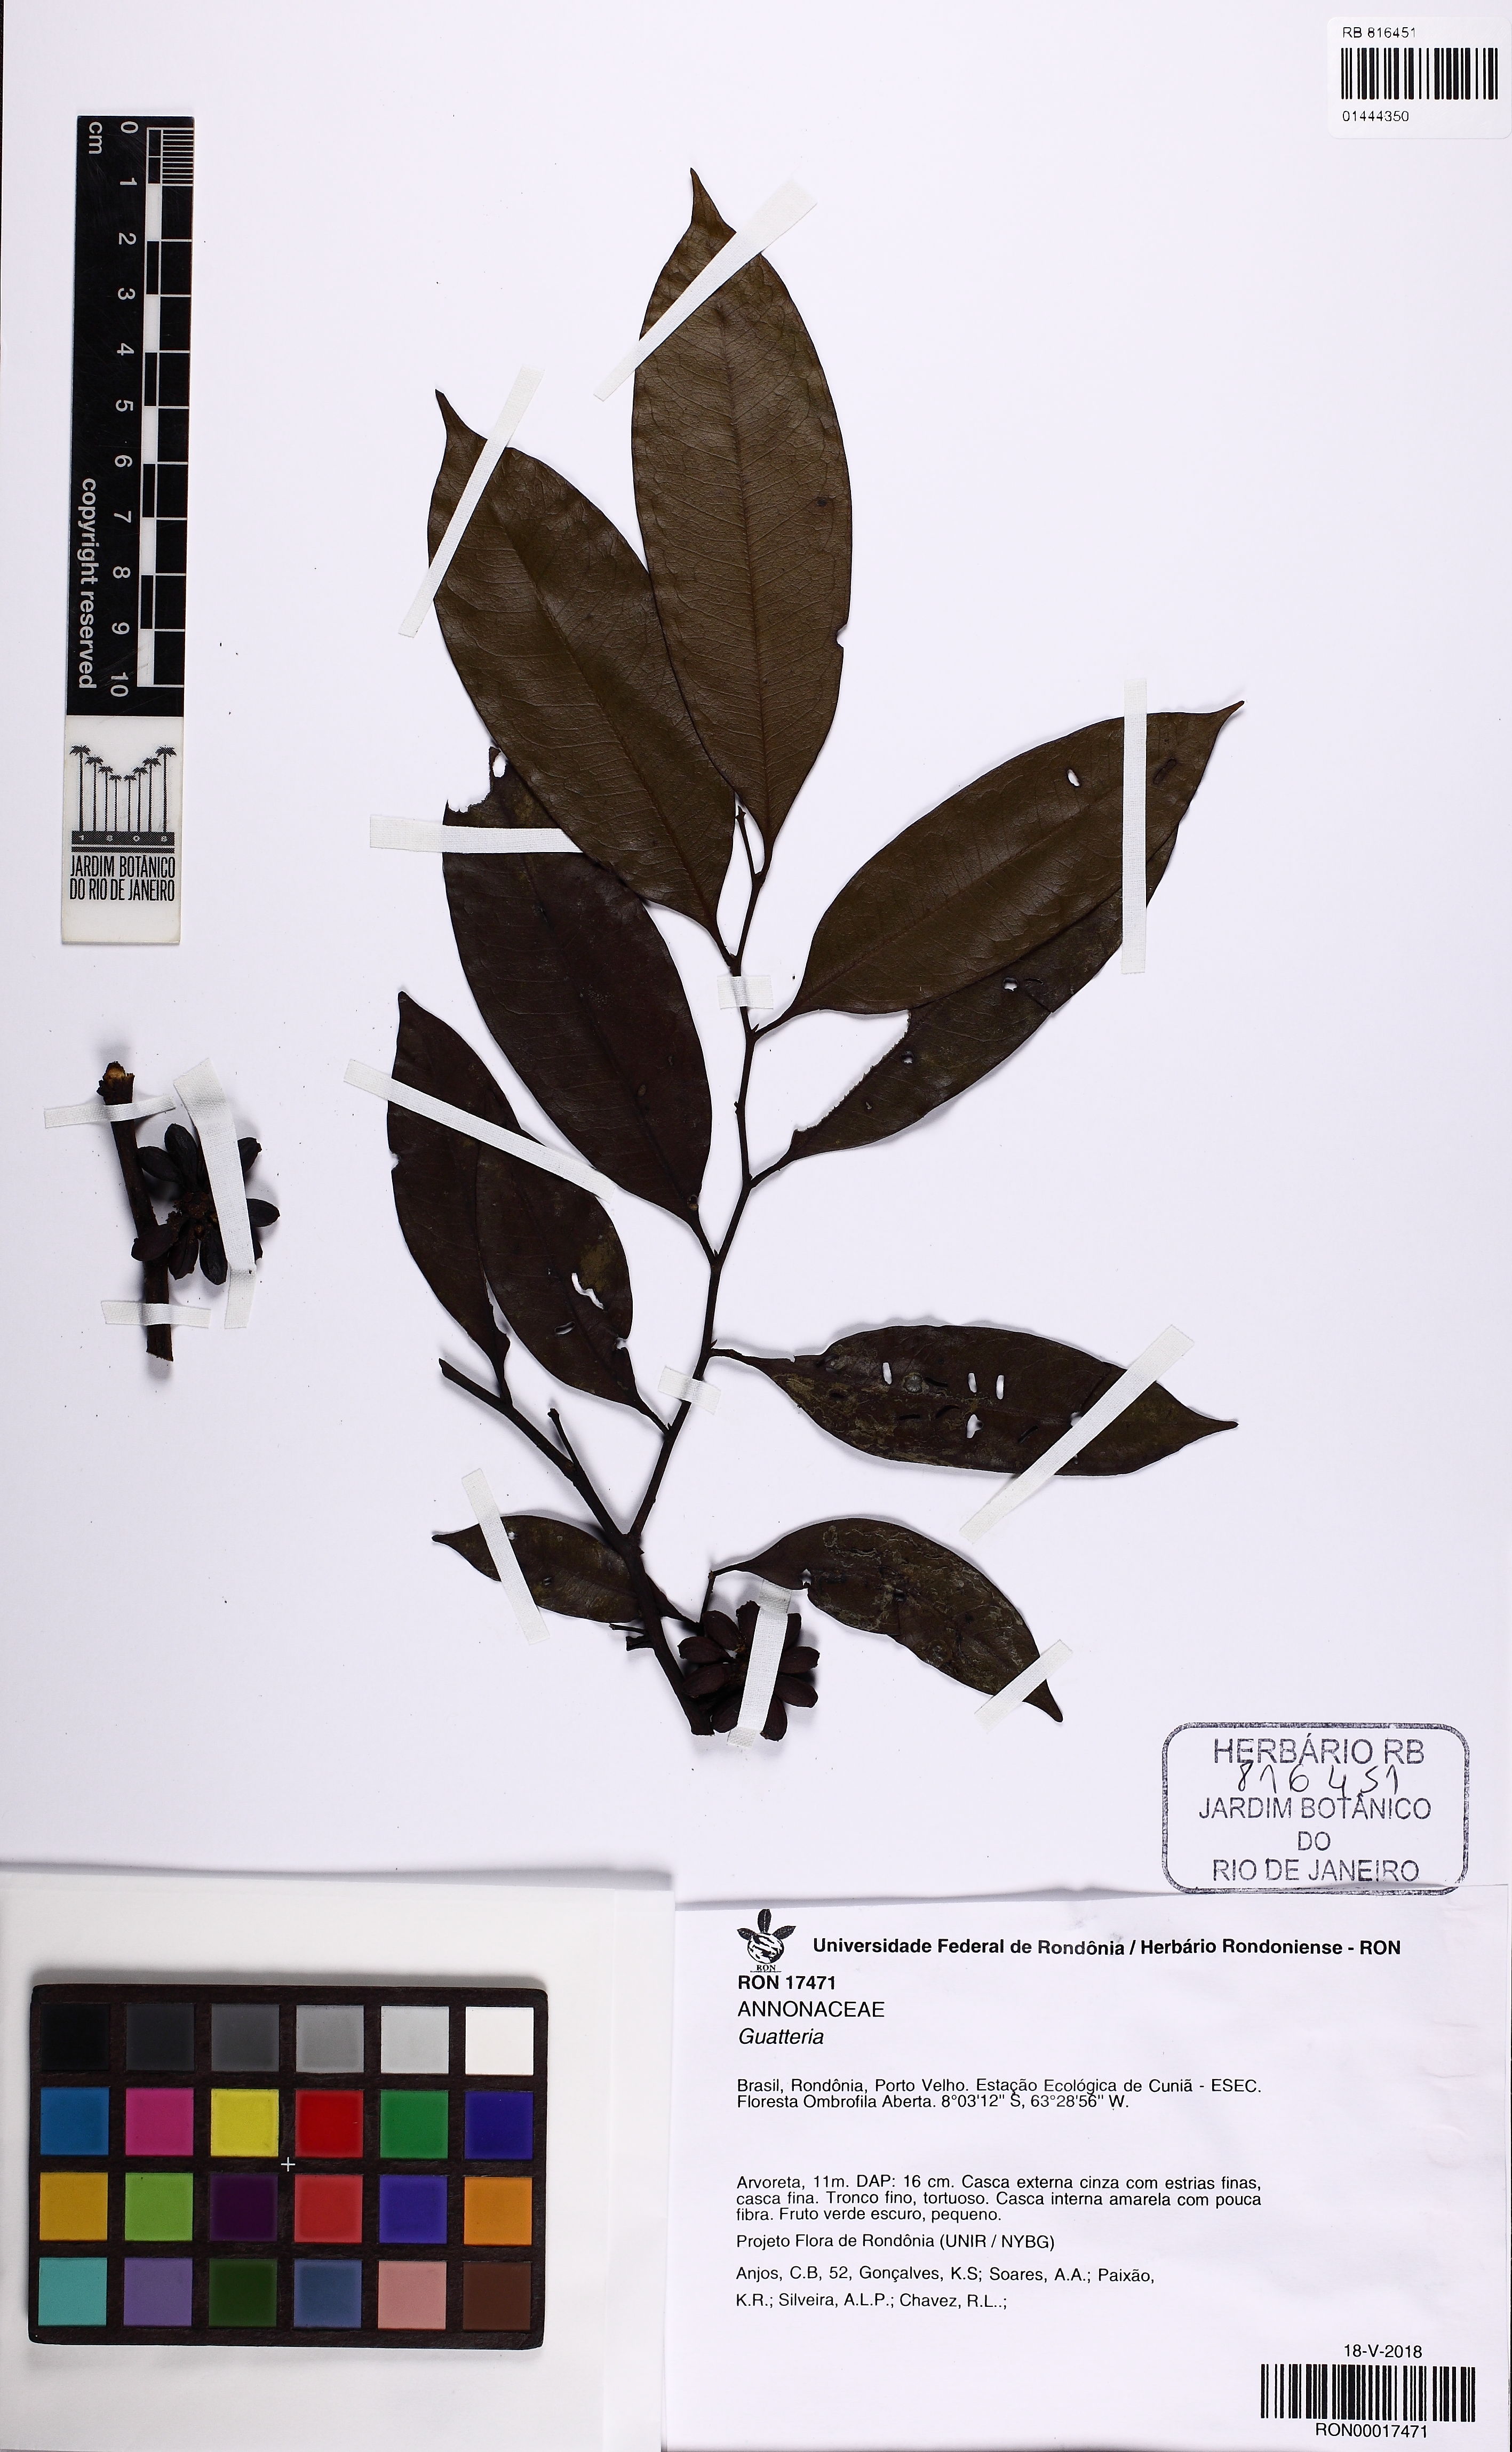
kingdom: Plantae
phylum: Tracheophyta
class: Magnoliopsida
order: Magnoliales
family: Annonaceae
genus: Guatteria
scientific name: Guatteria
